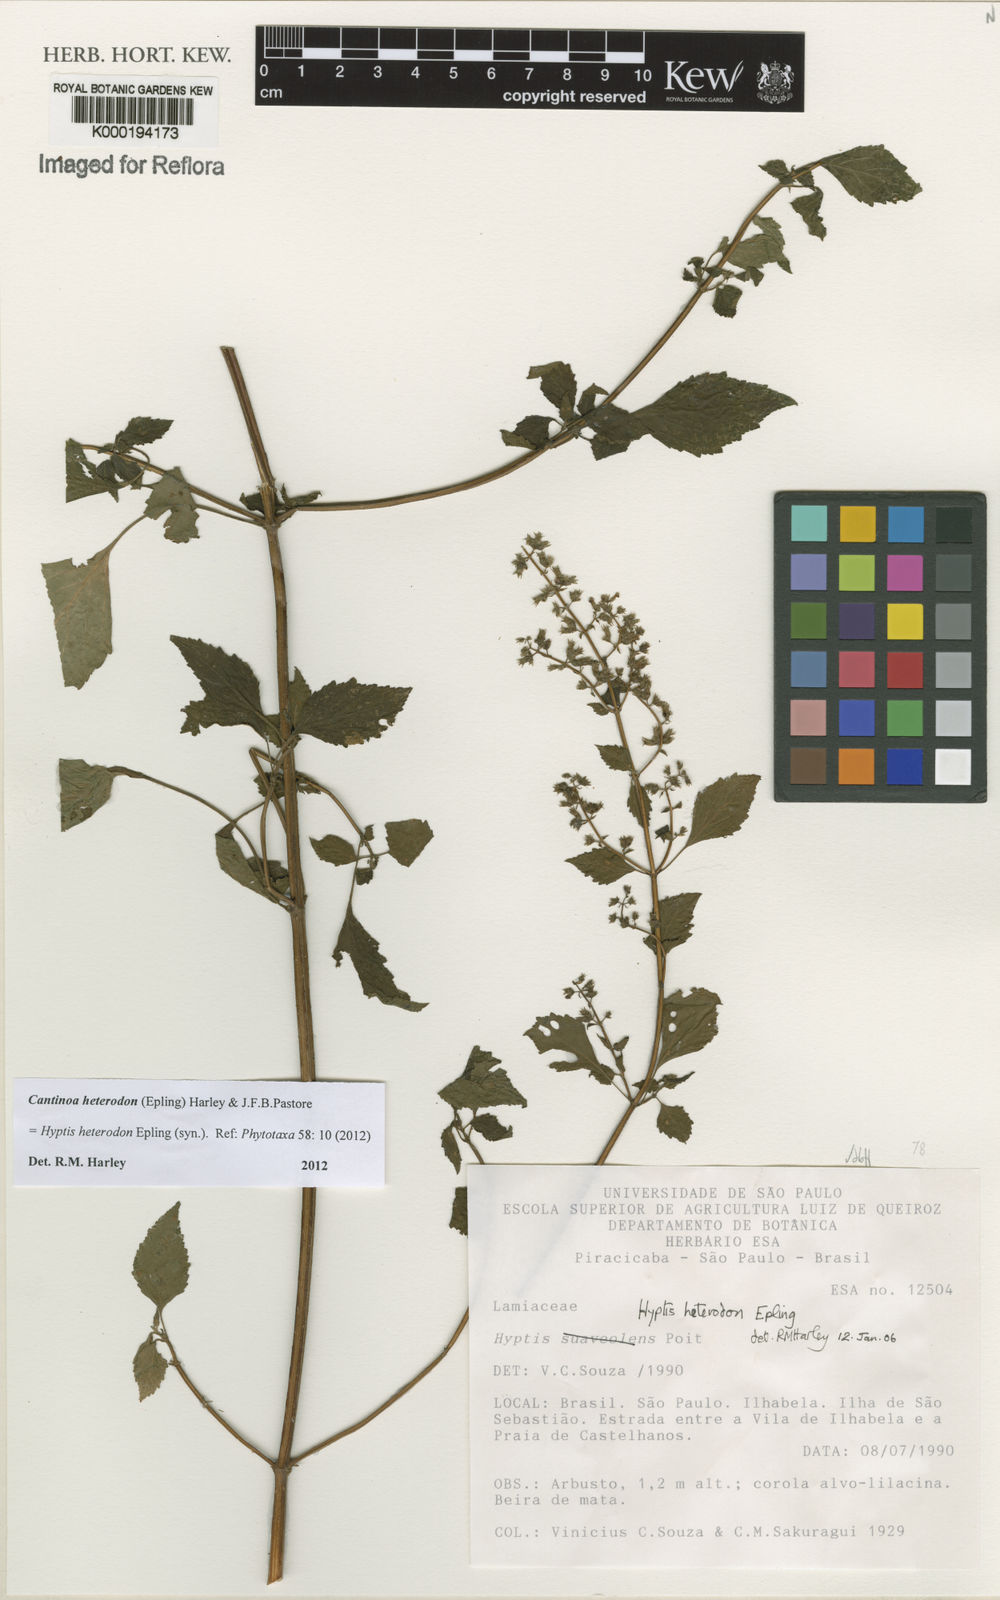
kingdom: Plantae
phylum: Tracheophyta
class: Magnoliopsida
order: Lamiales
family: Lamiaceae
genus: Cantinoa
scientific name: Cantinoa heterodon
